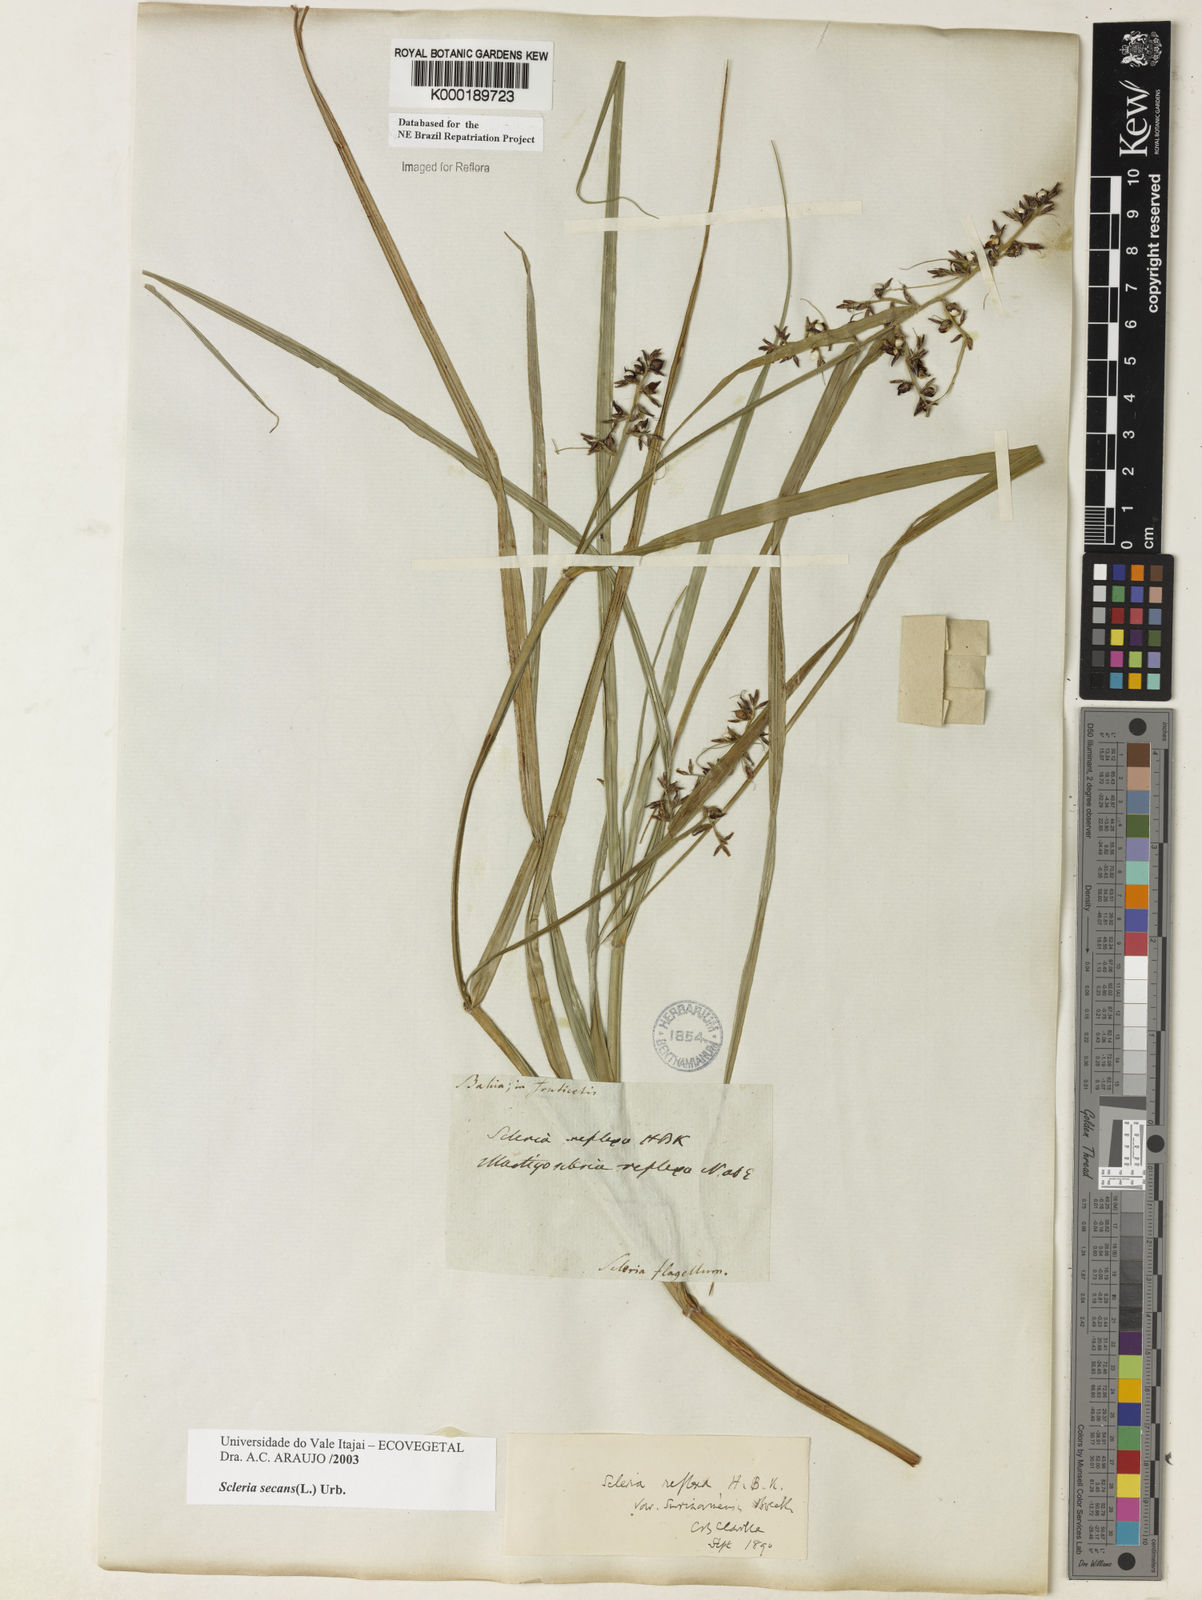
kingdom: Plantae
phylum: Tracheophyta
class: Liliopsida
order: Poales
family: Cyperaceae
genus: Scleria
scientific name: Scleria secans
